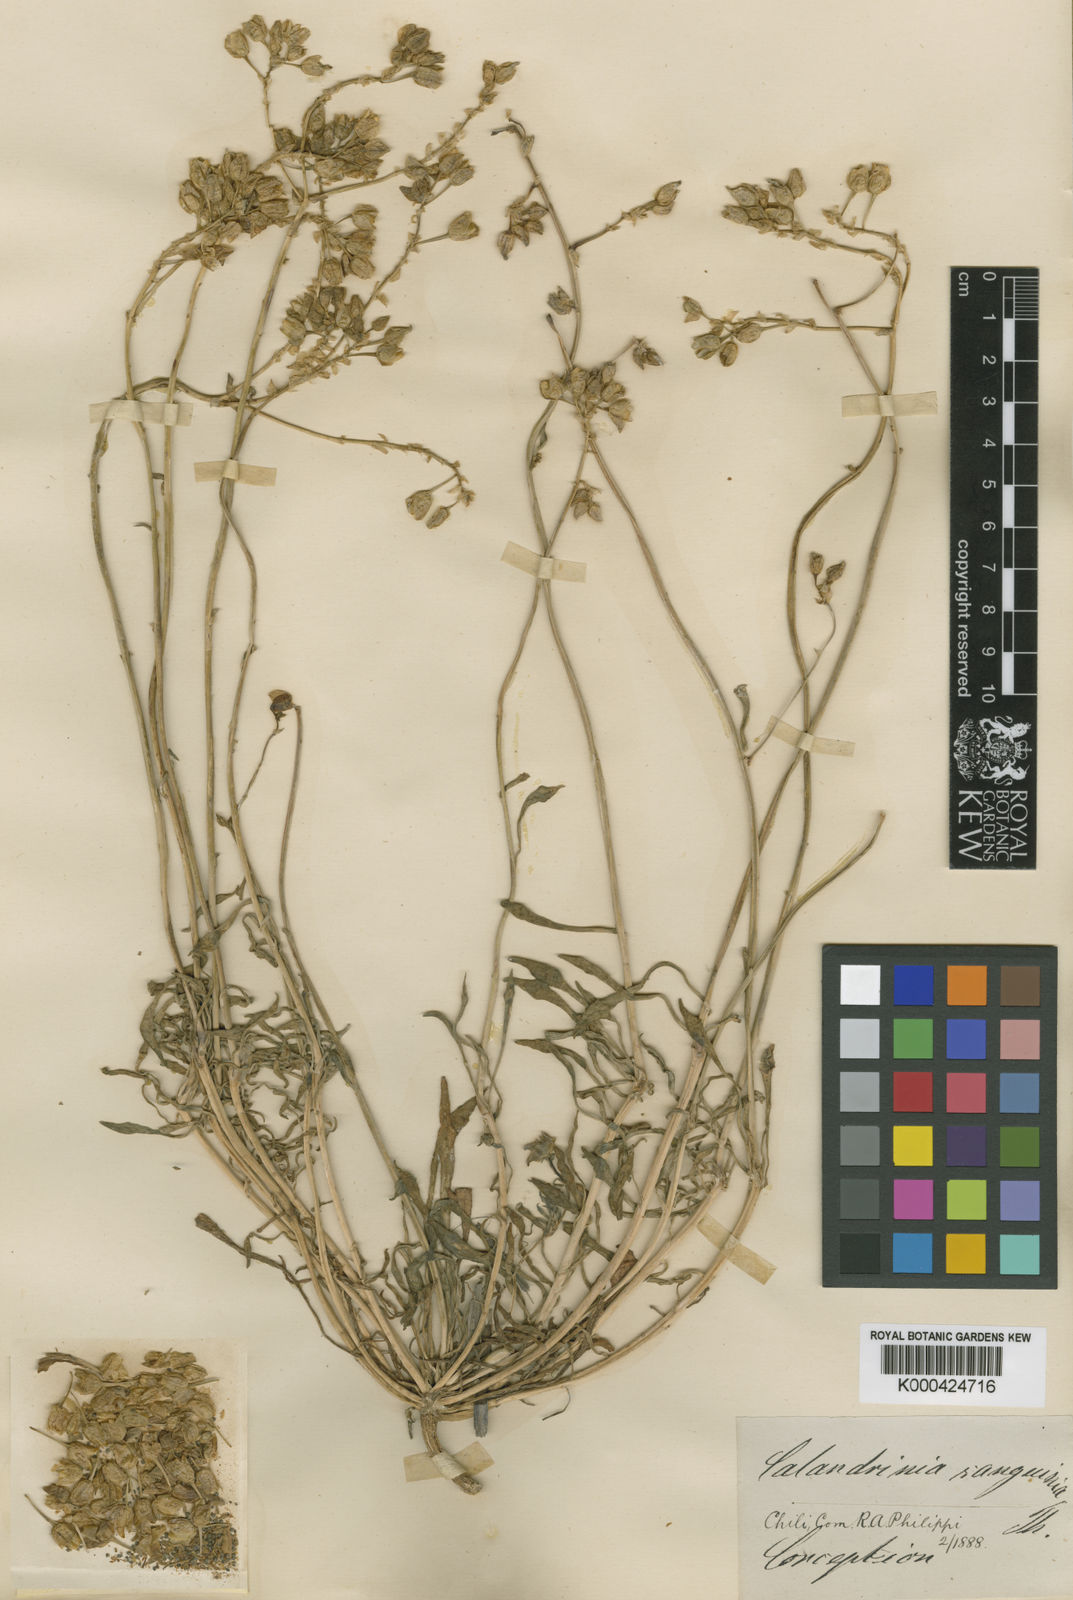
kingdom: Plantae
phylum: Tracheophyta
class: Magnoliopsida
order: Caryophyllales
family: Montiaceae
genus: Cistanthe
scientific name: Cistanthe
